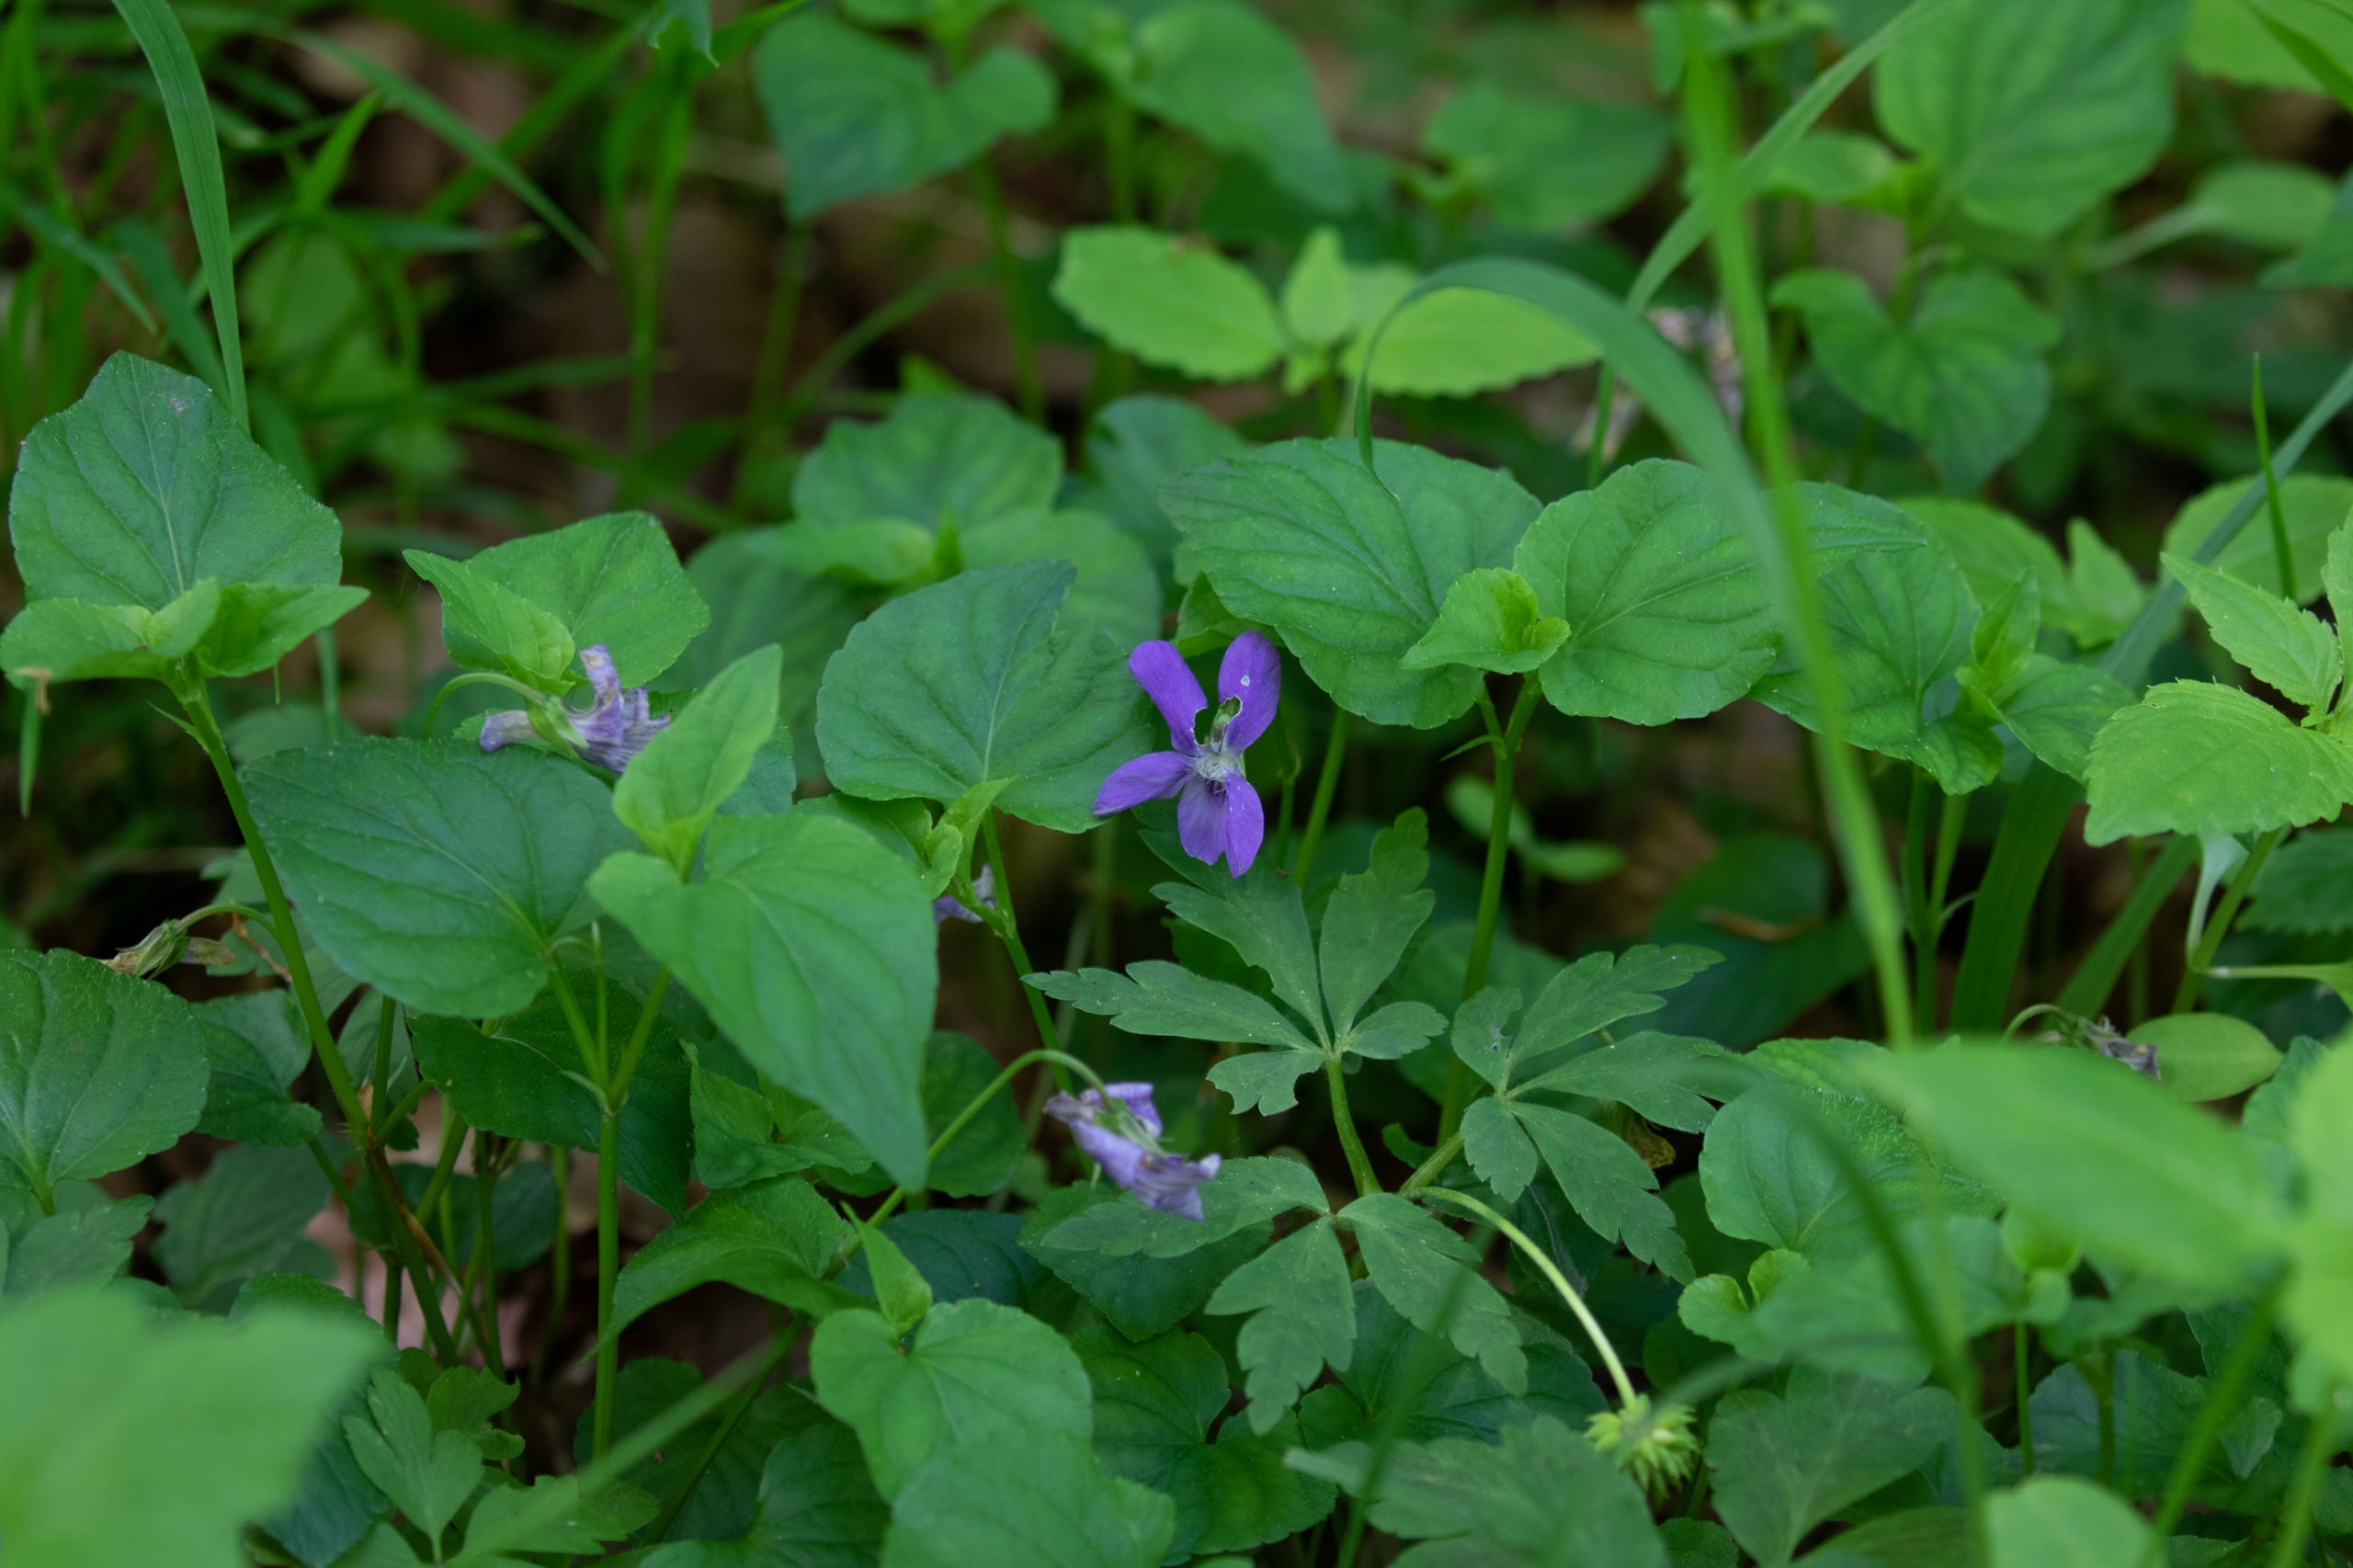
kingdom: Plantae
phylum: Tracheophyta
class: Magnoliopsida
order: Malpighiales
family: Violaceae
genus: Viola
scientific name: Viola reichenbachiana
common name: Skov-viol
